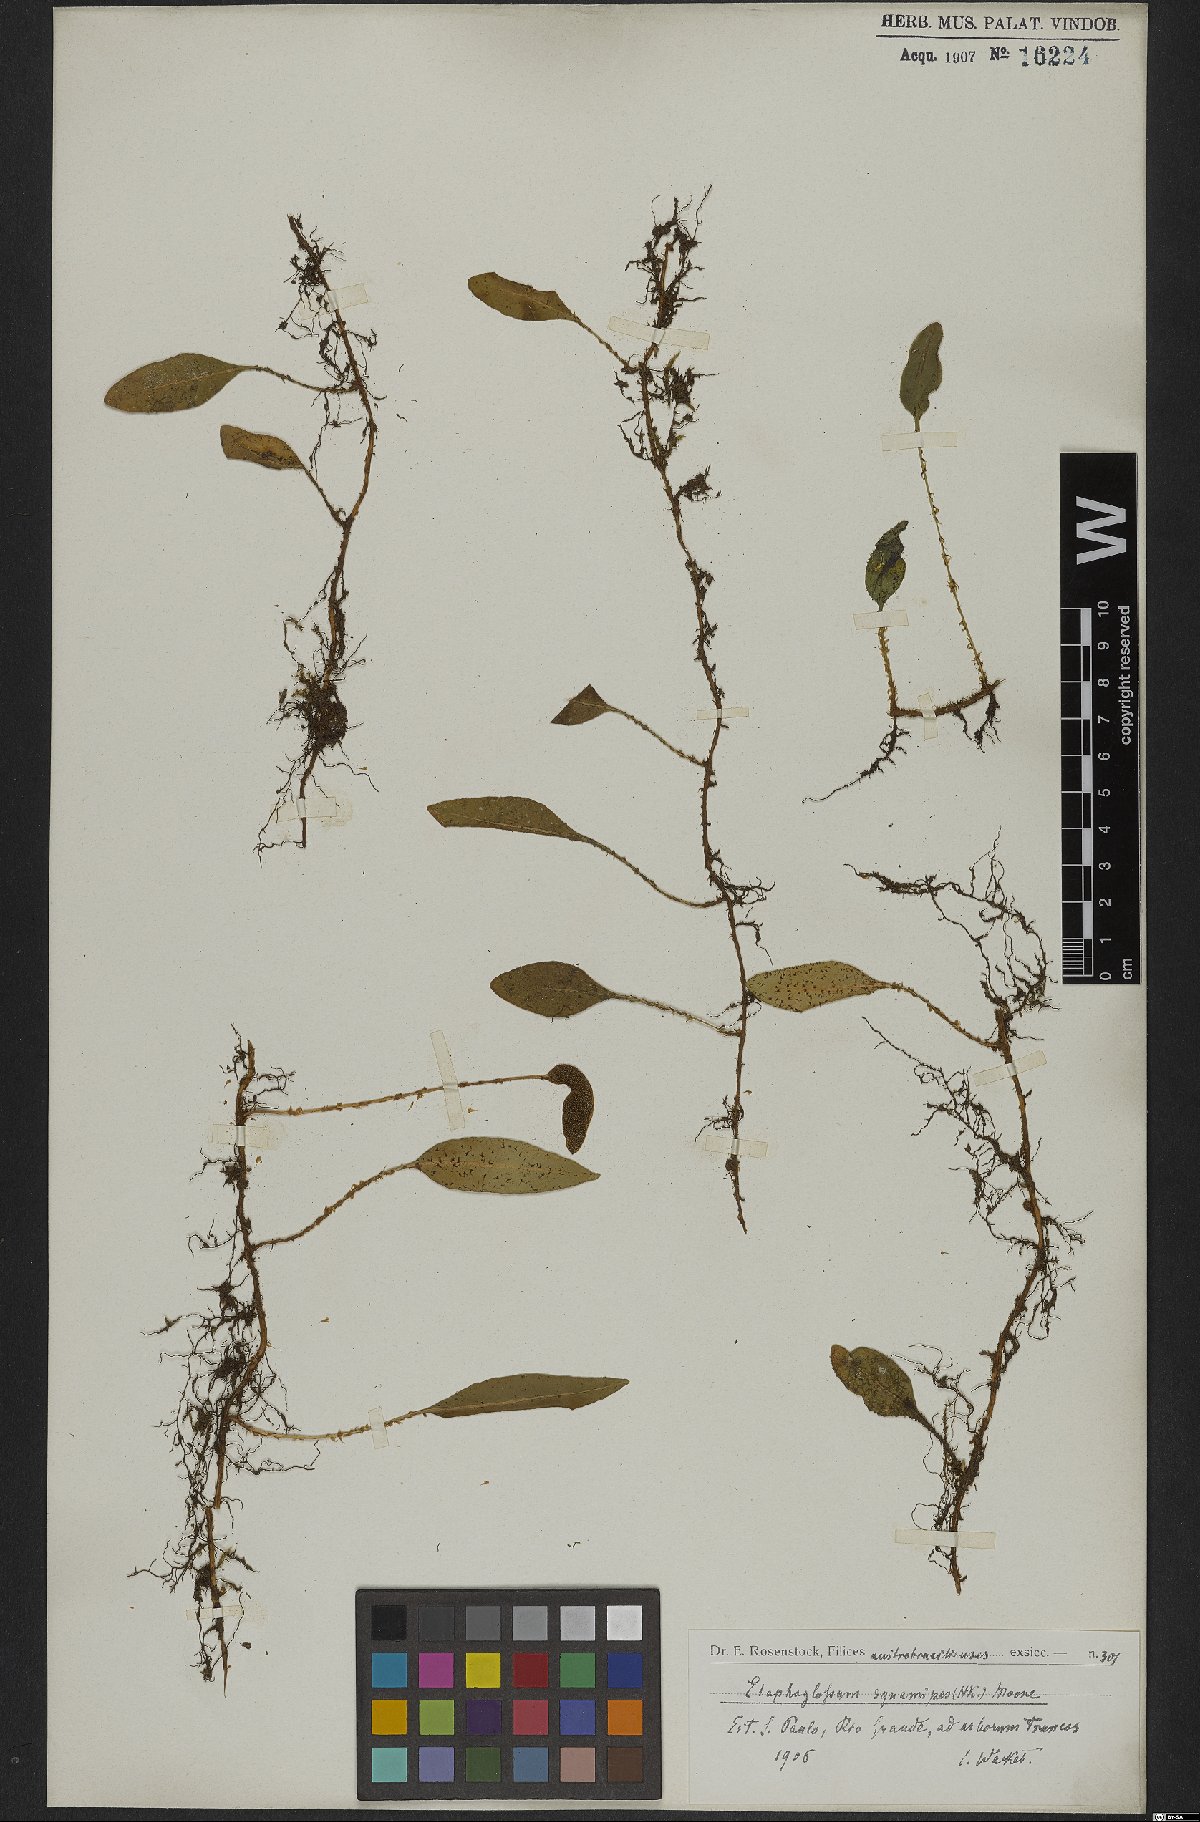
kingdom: Plantae
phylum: Tracheophyta
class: Polypodiopsida
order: Polypodiales
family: Dryopteridaceae
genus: Elaphoglossum
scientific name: Elaphoglossum squamipes
